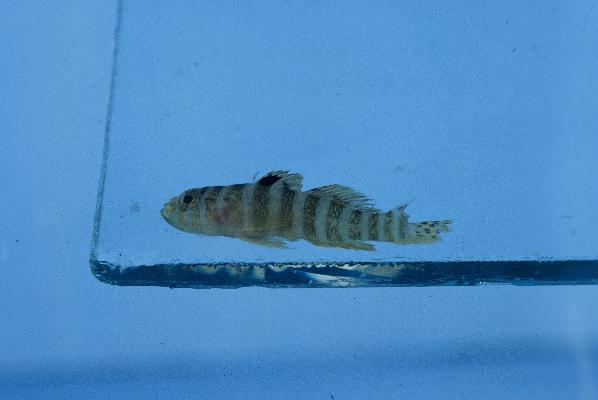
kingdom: Animalia
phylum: Chordata
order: Perciformes
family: Gobiidae
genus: Priolepis
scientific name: Priolepis cincta
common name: Banded reef-goby
